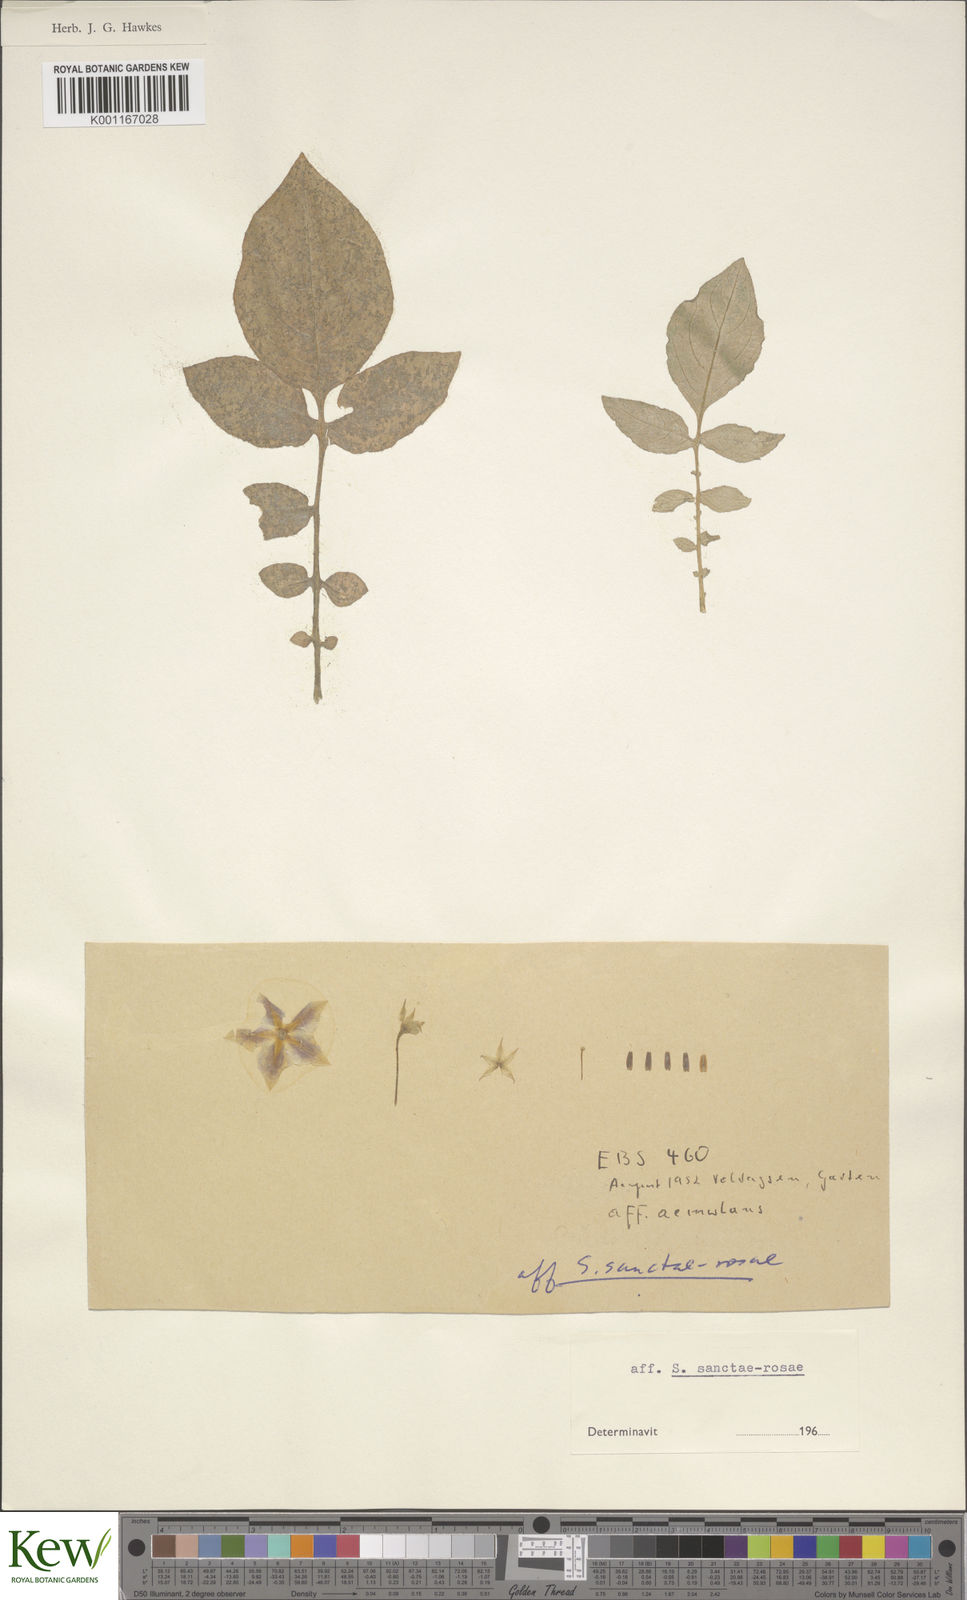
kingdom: Plantae
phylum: Tracheophyta
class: Magnoliopsida
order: Solanales
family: Solanaceae
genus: Solanum
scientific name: Solanum boliviense
